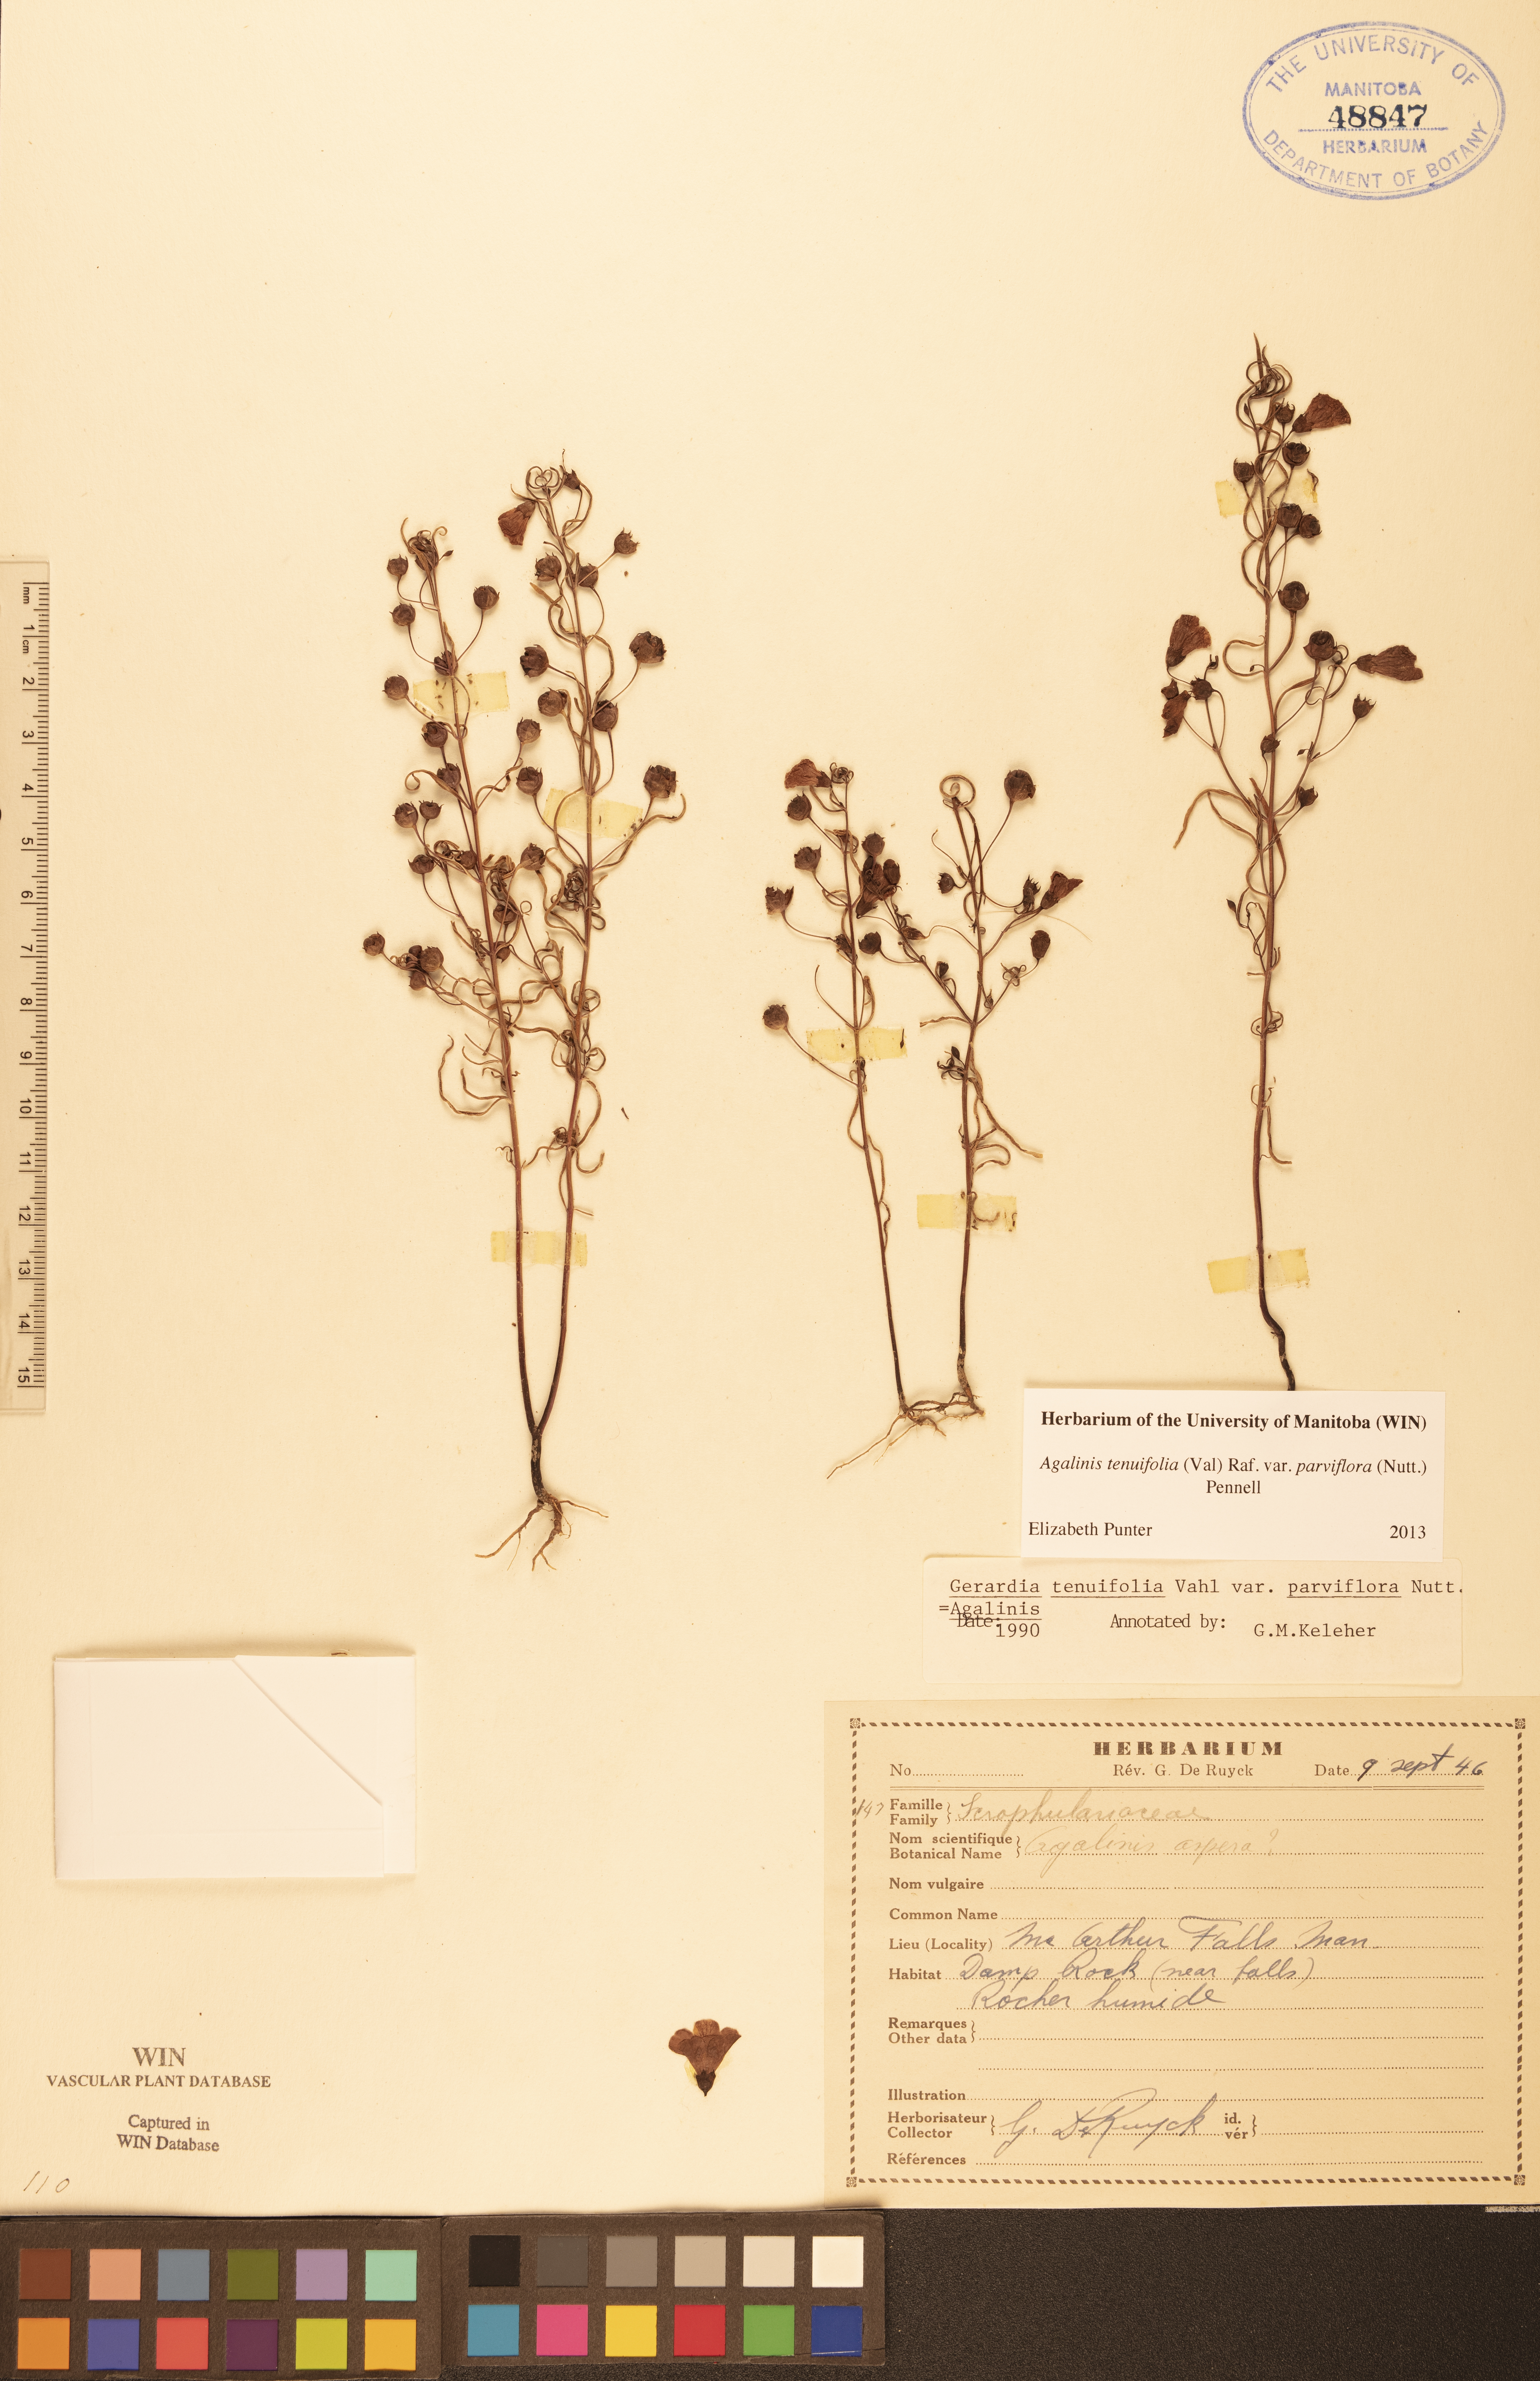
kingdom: Plantae
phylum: Tracheophyta
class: Magnoliopsida
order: Lamiales
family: Orobanchaceae
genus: Agalinis
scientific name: Agalinis tenuifolia
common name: Slender agalinis
